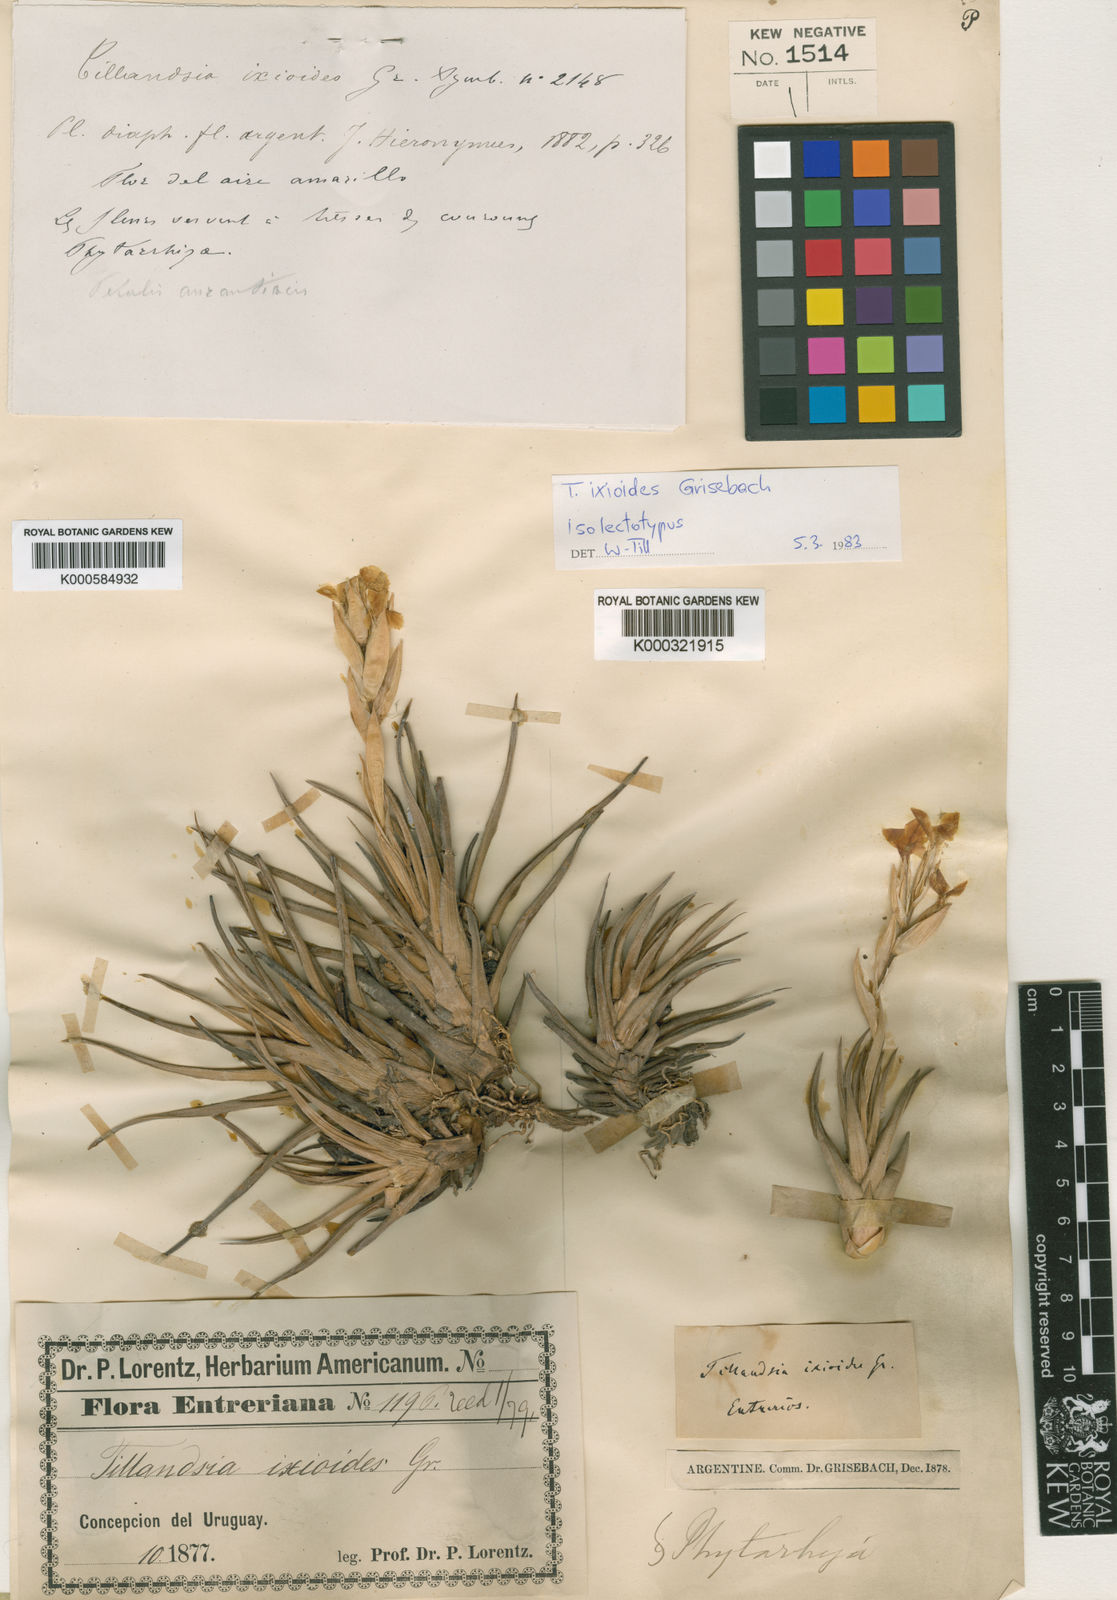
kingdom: Plantae
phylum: Tracheophyta
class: Liliopsida
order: Poales
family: Bromeliaceae
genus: Tillandsia
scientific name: Tillandsia ixioides
